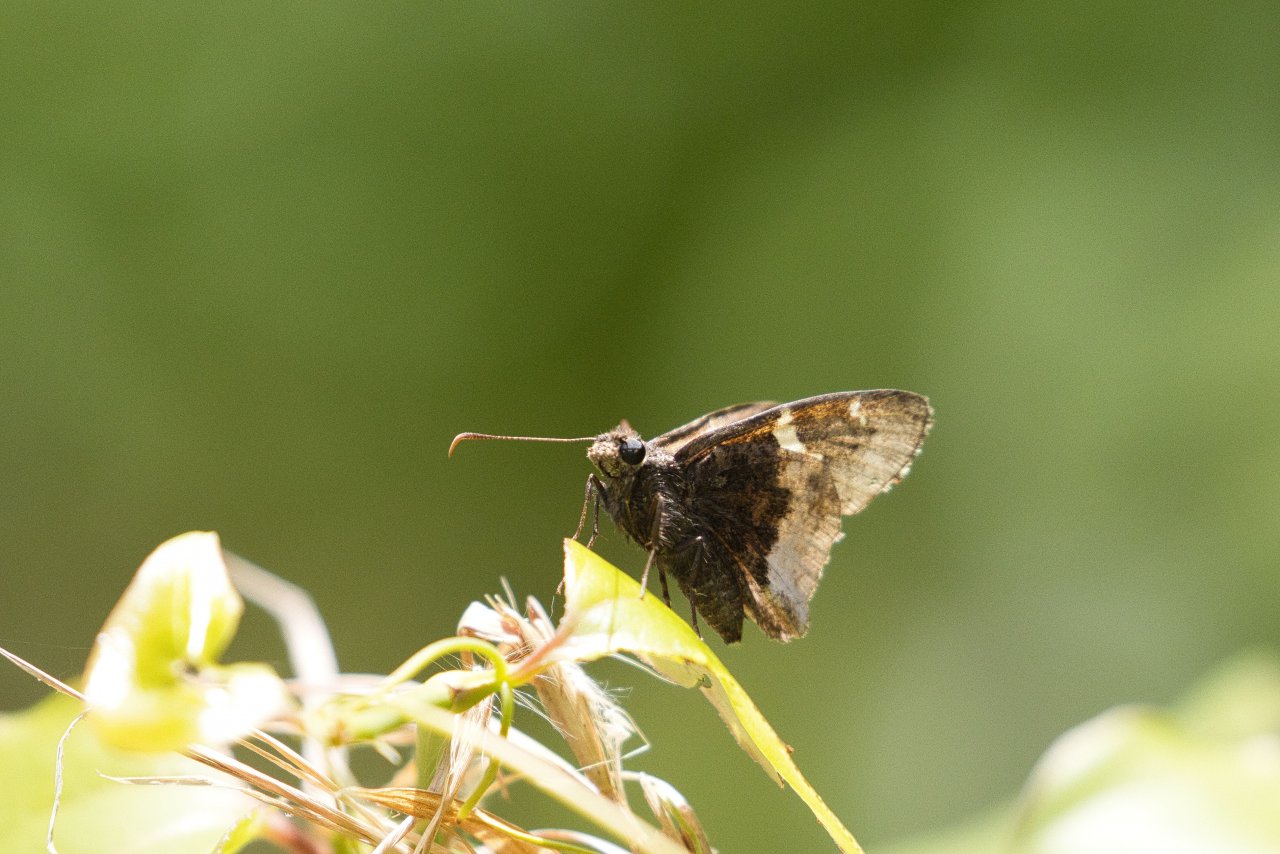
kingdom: Animalia
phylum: Arthropoda
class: Insecta
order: Lepidoptera
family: Hesperiidae
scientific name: Hesperiidae
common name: Skippers
